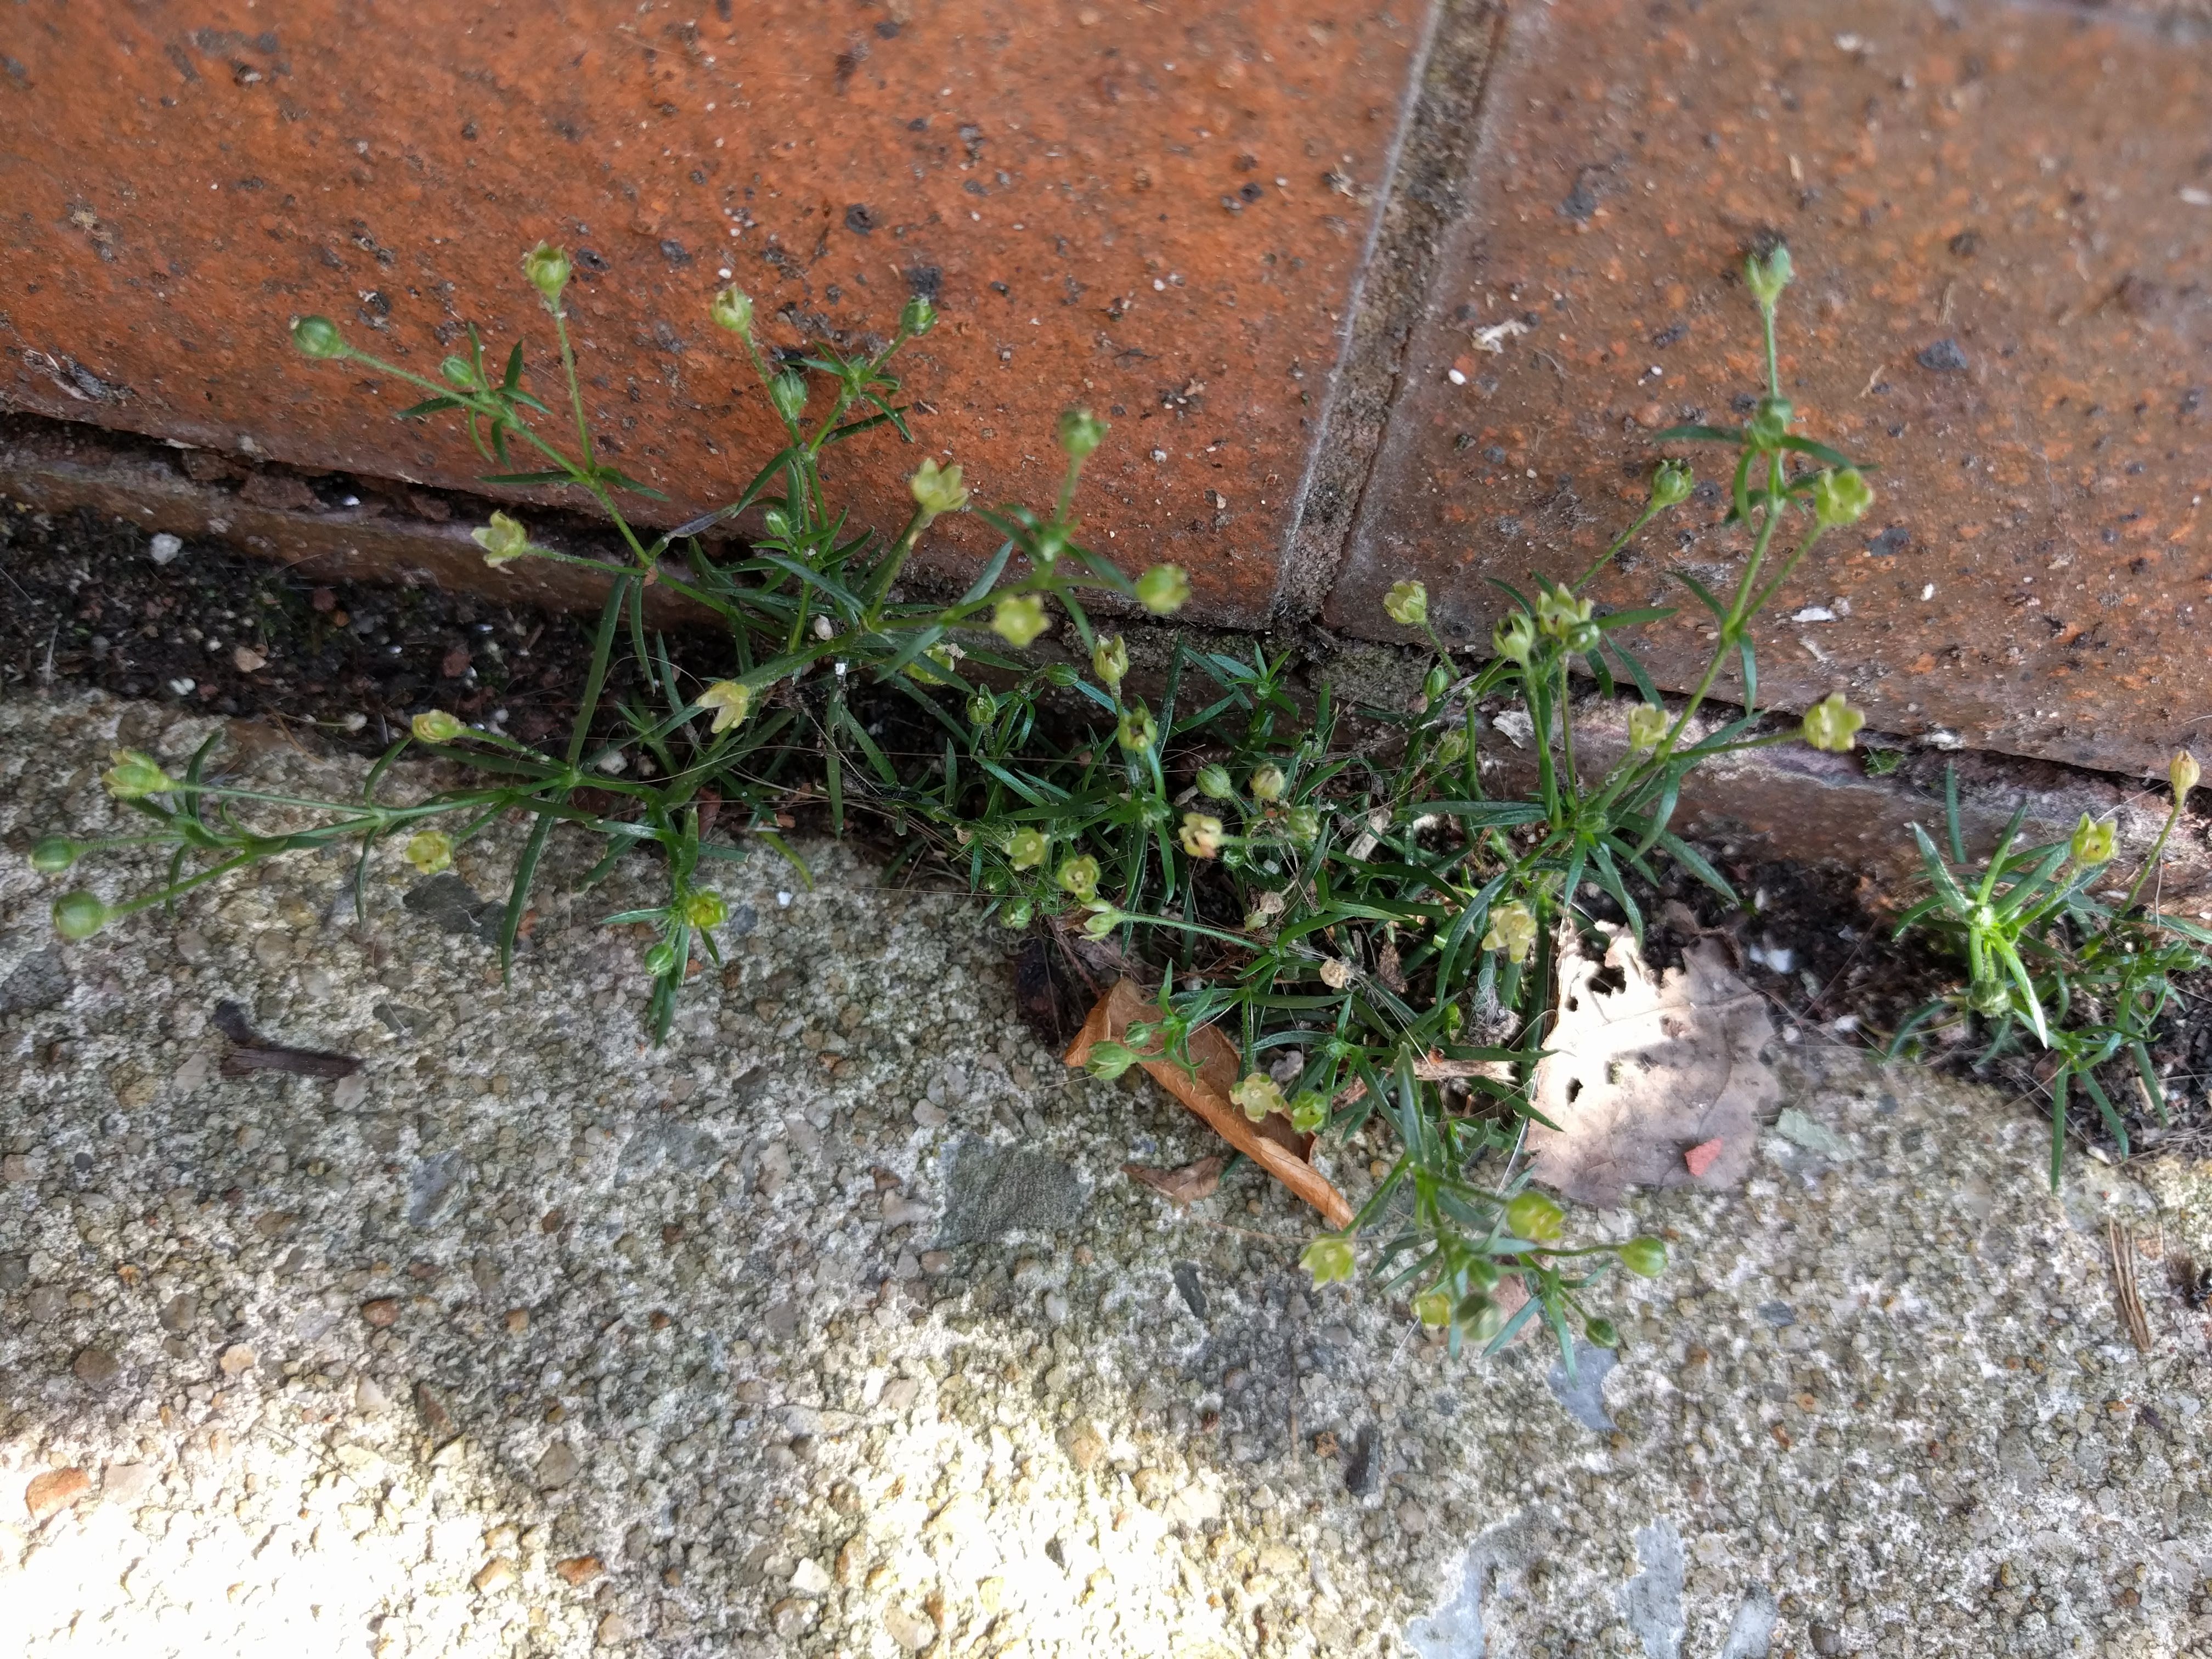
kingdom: Plantae
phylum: Tracheophyta
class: Magnoliopsida
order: Caryophyllales
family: Caryophyllaceae
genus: Sagina
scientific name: Sagina japonica
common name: Japanese pearlwort
